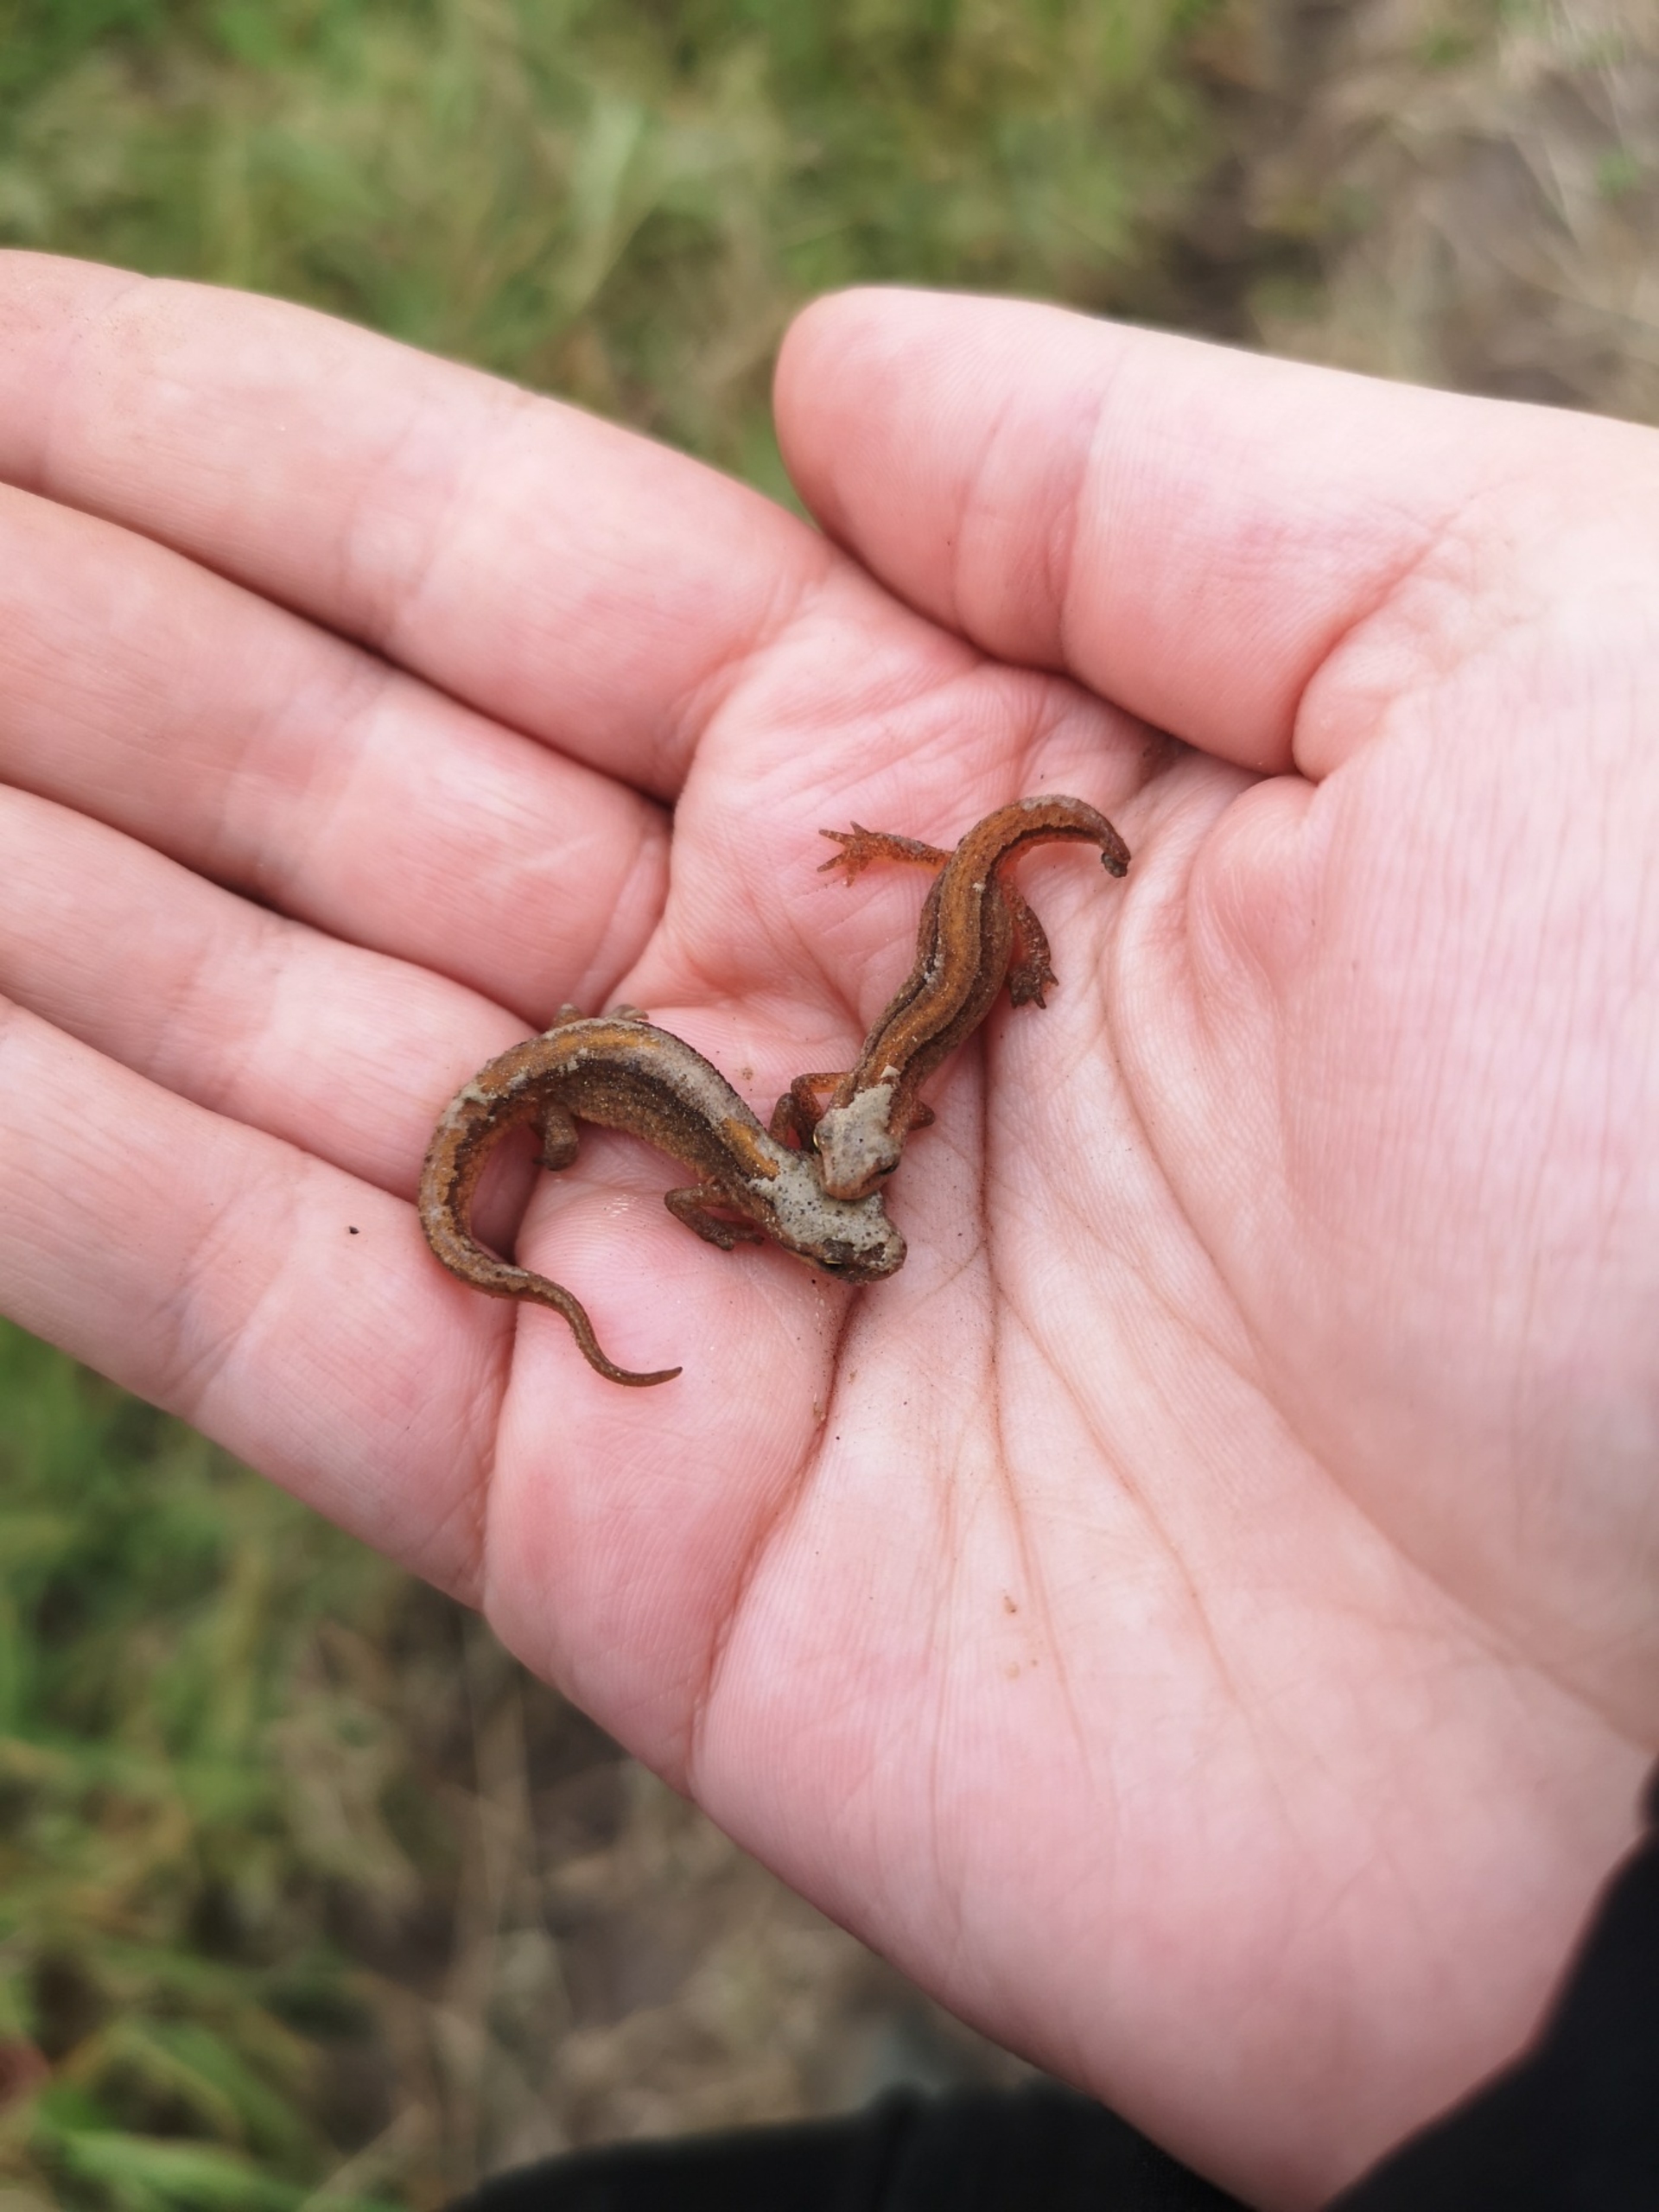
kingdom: Animalia
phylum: Chordata
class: Amphibia
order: Caudata
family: Salamandridae
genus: Lissotriton
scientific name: Lissotriton vulgaris
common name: Lille vandsalamander
